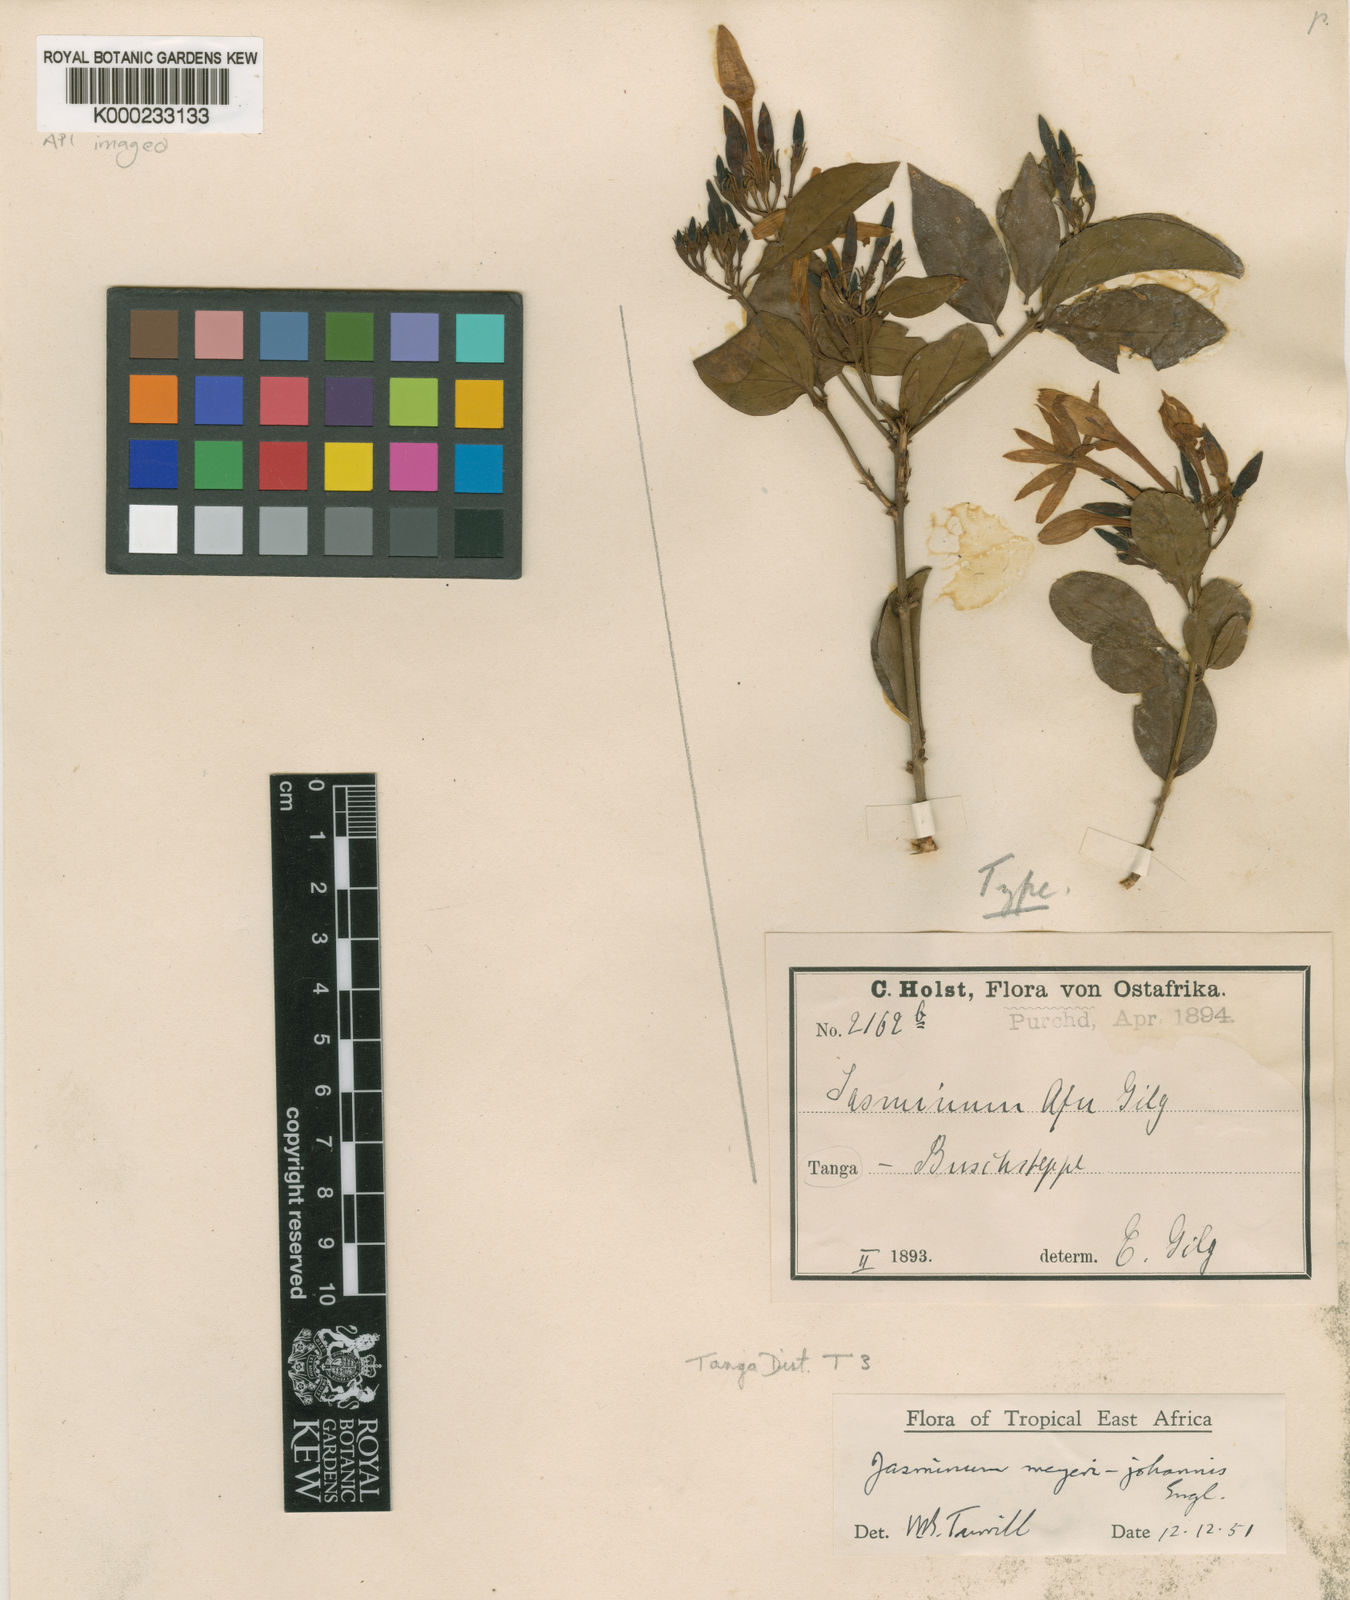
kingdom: Plantae
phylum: Tracheophyta
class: Magnoliopsida
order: Lamiales
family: Oleaceae
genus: Jasminum
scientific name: Jasminum meyeri-johannis
